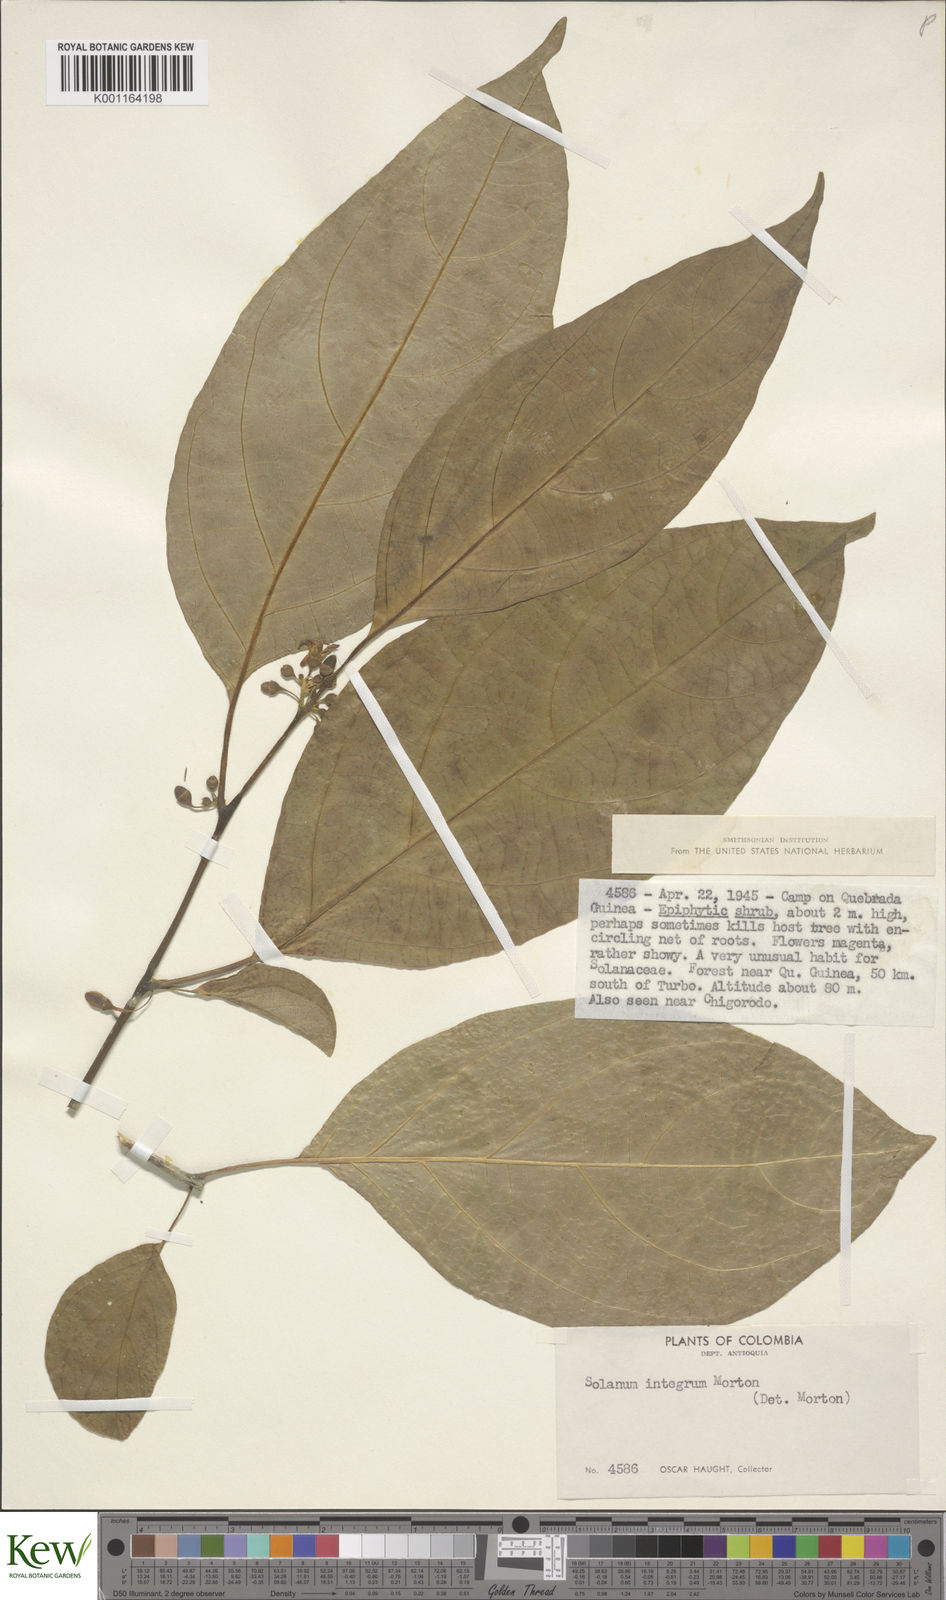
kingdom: Plantae
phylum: Tracheophyta
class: Magnoliopsida
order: Solanales
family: Solanaceae
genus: Lycianthes
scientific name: Lycianthes sanctae-marthae
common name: Santa marta lycianthes
